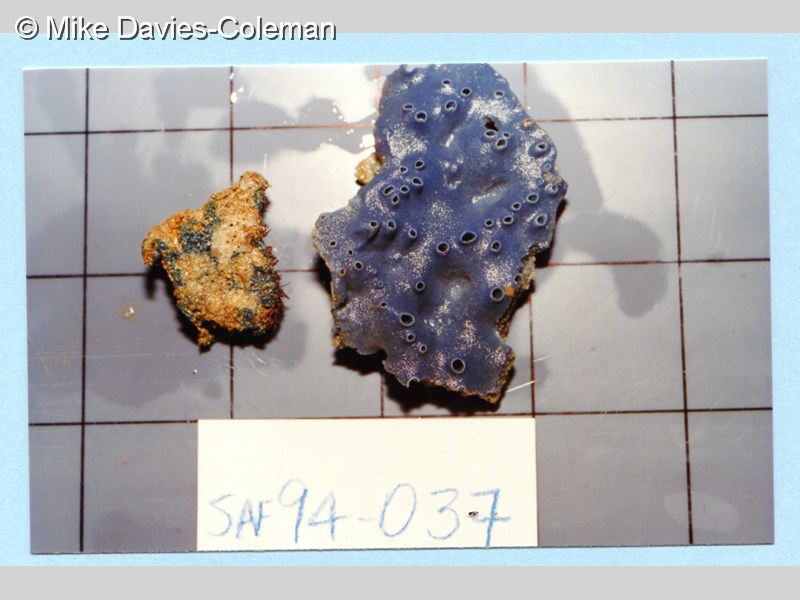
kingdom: Animalia
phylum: Porifera
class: Demospongiae
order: Haplosclerida
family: Chalinidae
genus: Haliclona
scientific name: Haliclona
